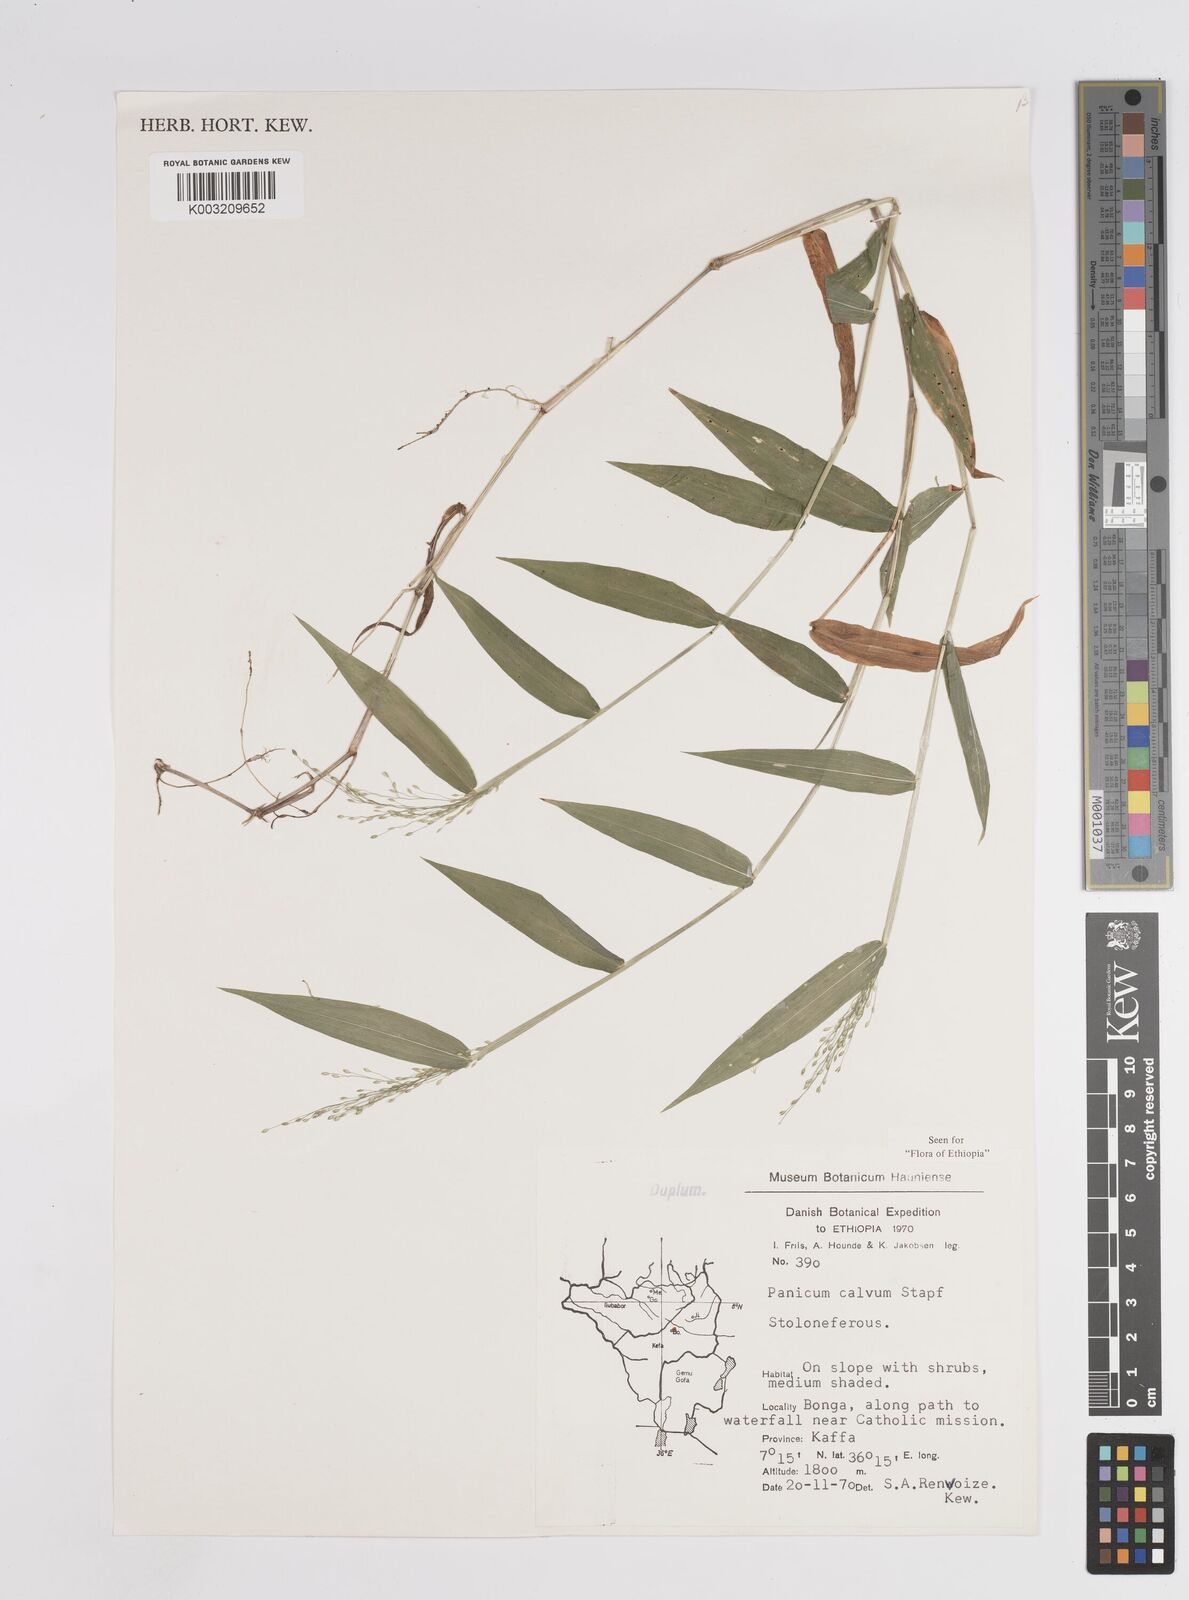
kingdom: Plantae
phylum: Tracheophyta
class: Liliopsida
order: Poales
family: Poaceae
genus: Panicum
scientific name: Panicum calvum
